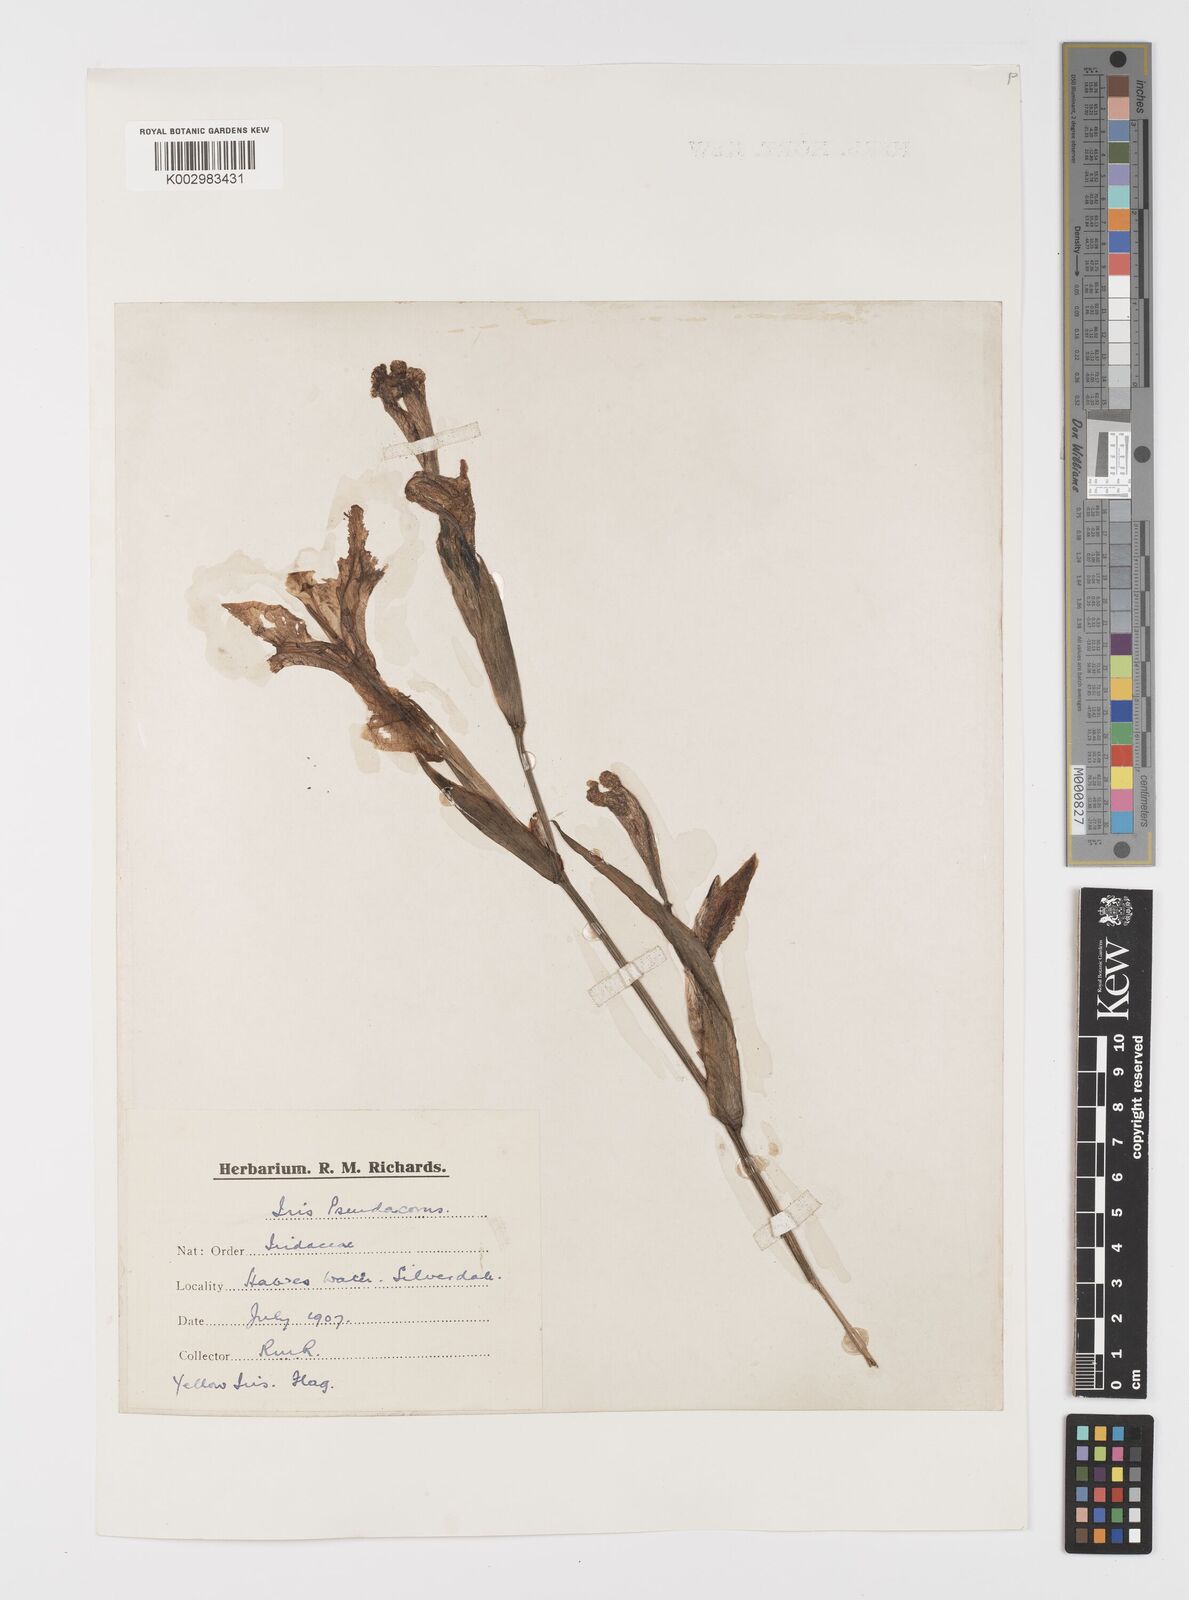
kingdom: Plantae
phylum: Tracheophyta
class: Liliopsida
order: Asparagales
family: Iridaceae
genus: Iris
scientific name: Iris pseudacorus
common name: Yellow flag
